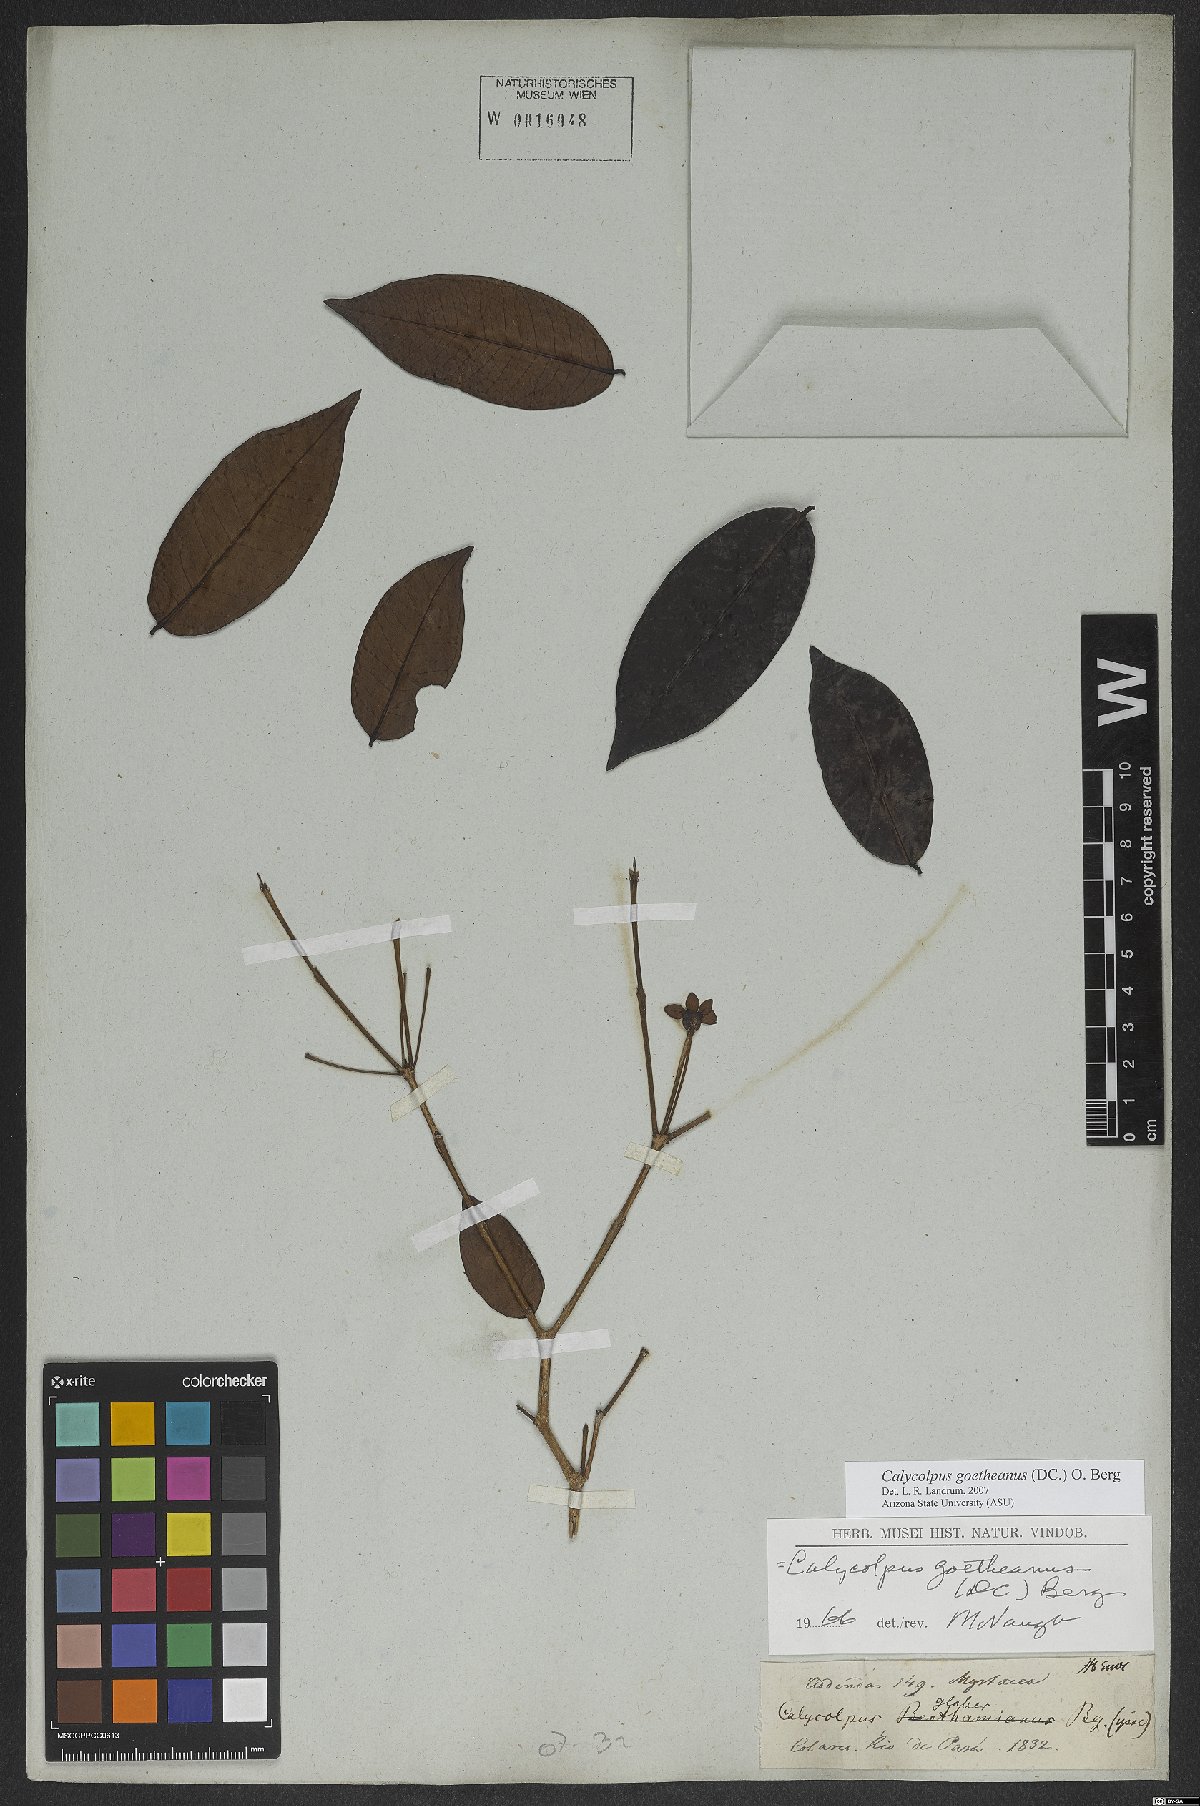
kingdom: Plantae
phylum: Tracheophyta
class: Magnoliopsida
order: Myrtales
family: Myrtaceae
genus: Calycolpus
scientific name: Calycolpus goetheanus
